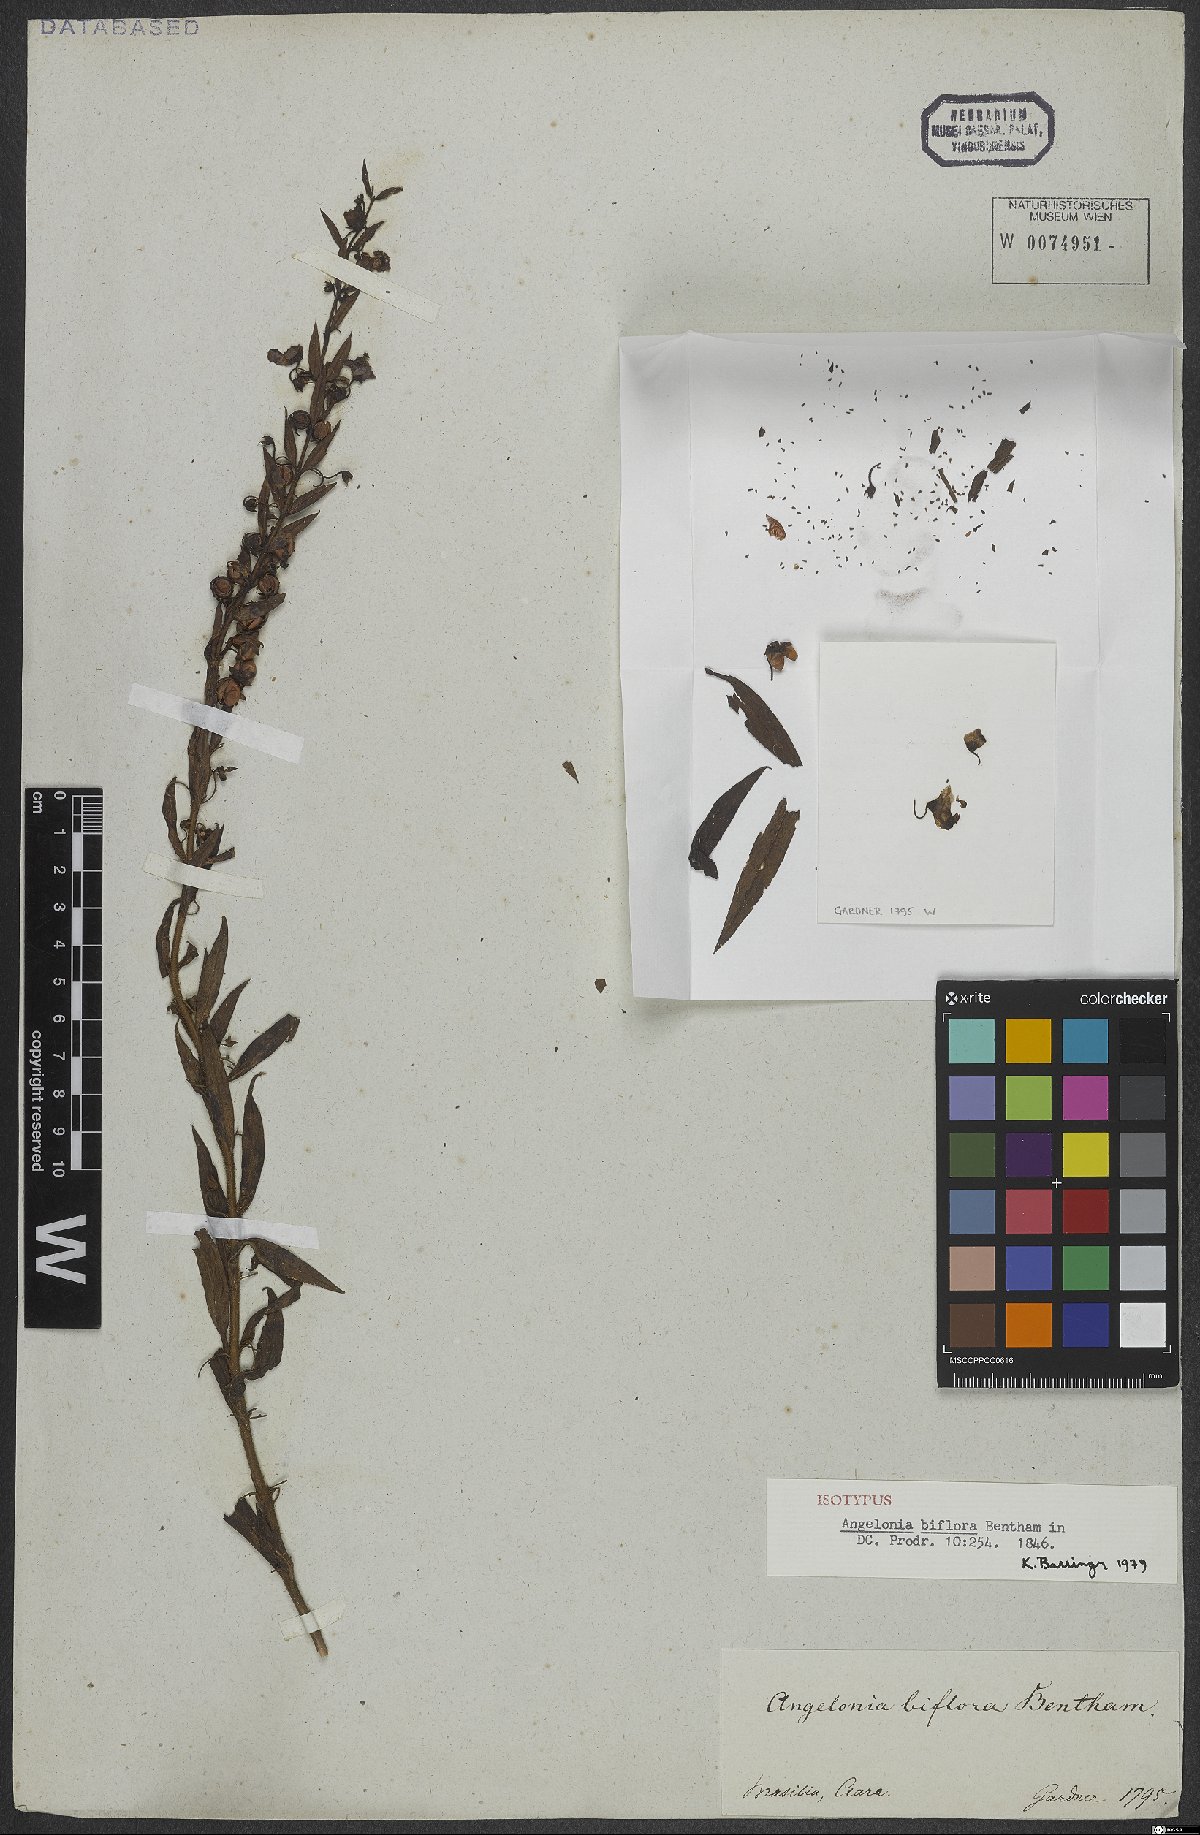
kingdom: Plantae
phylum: Tracheophyta
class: Magnoliopsida
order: Lamiales
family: Plantaginaceae
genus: Angelonia
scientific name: Angelonia biflora
